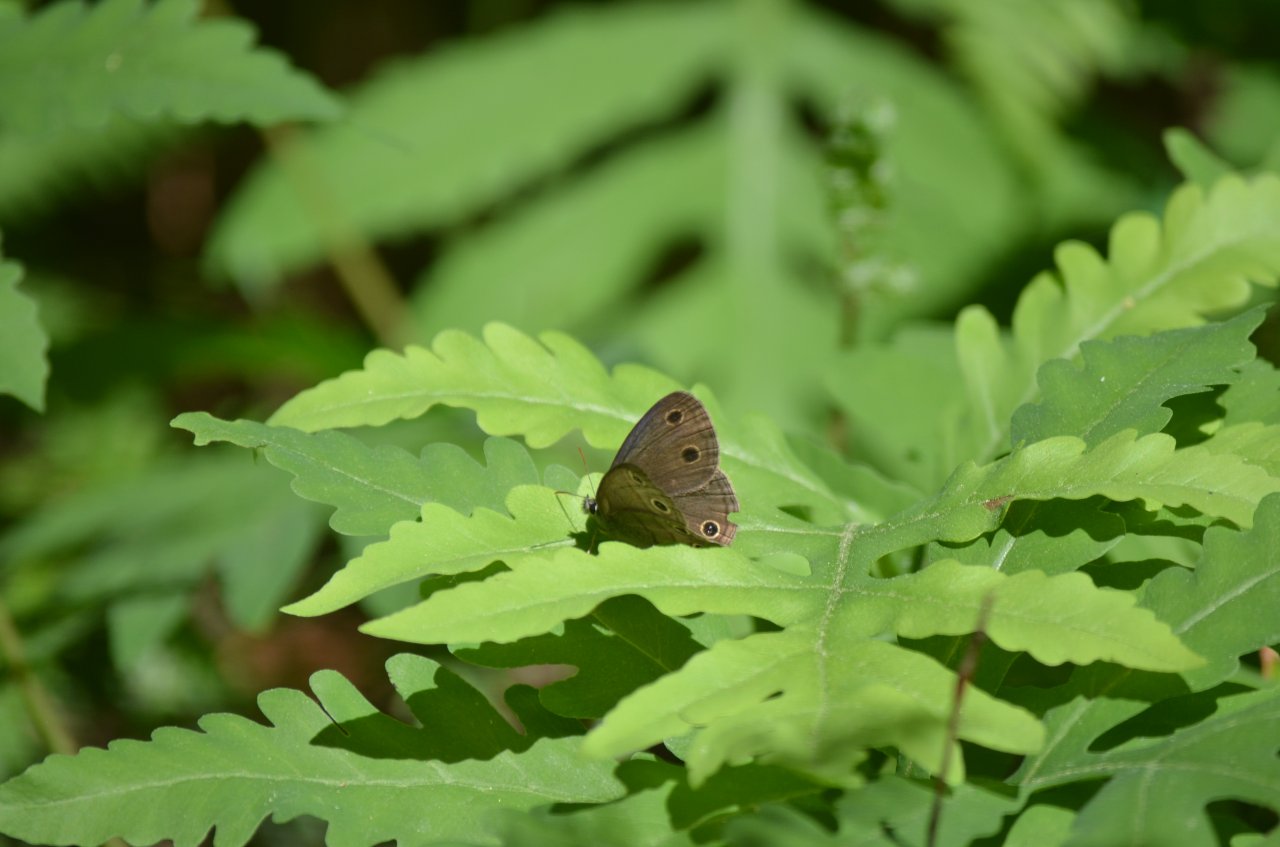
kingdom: Animalia
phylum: Arthropoda
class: Insecta
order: Lepidoptera
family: Nymphalidae
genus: Euptychia
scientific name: Euptychia cymela
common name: Little Wood Satyr
